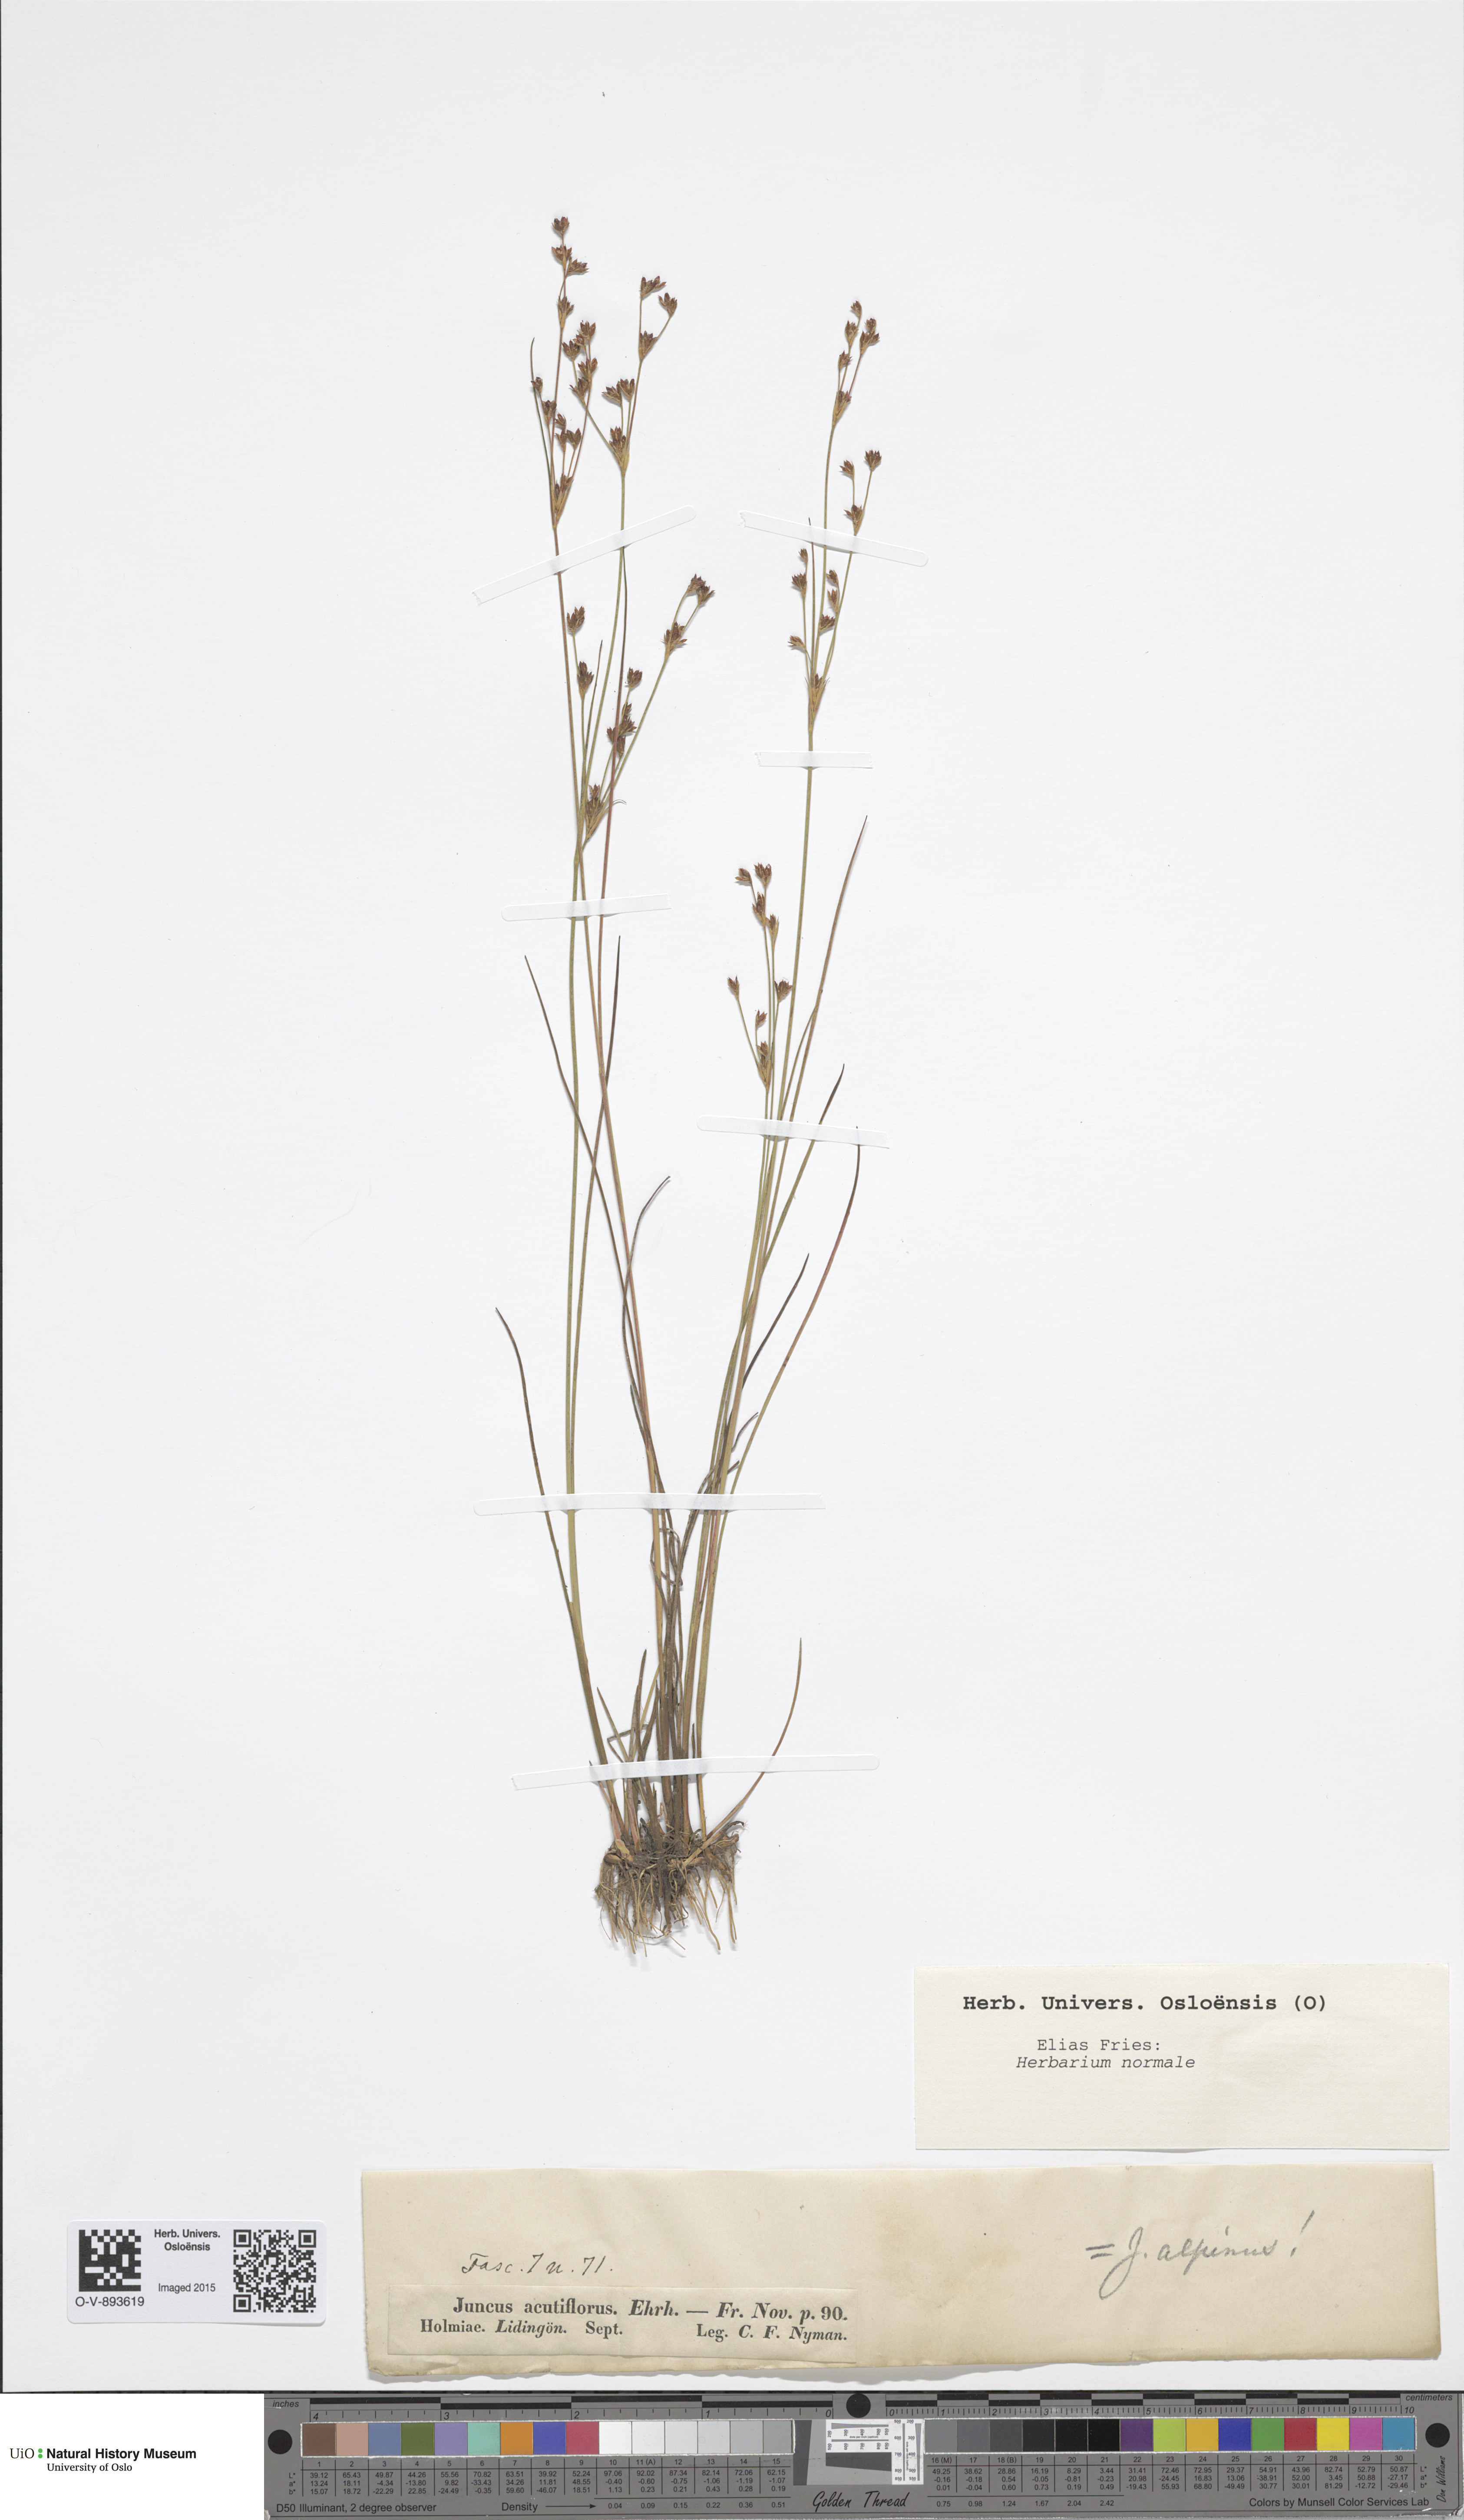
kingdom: Plantae
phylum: Tracheophyta
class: Liliopsida
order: Poales
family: Juncaceae
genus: Juncus
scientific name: Juncus acutiflorus
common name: Sharp-flowered rush
